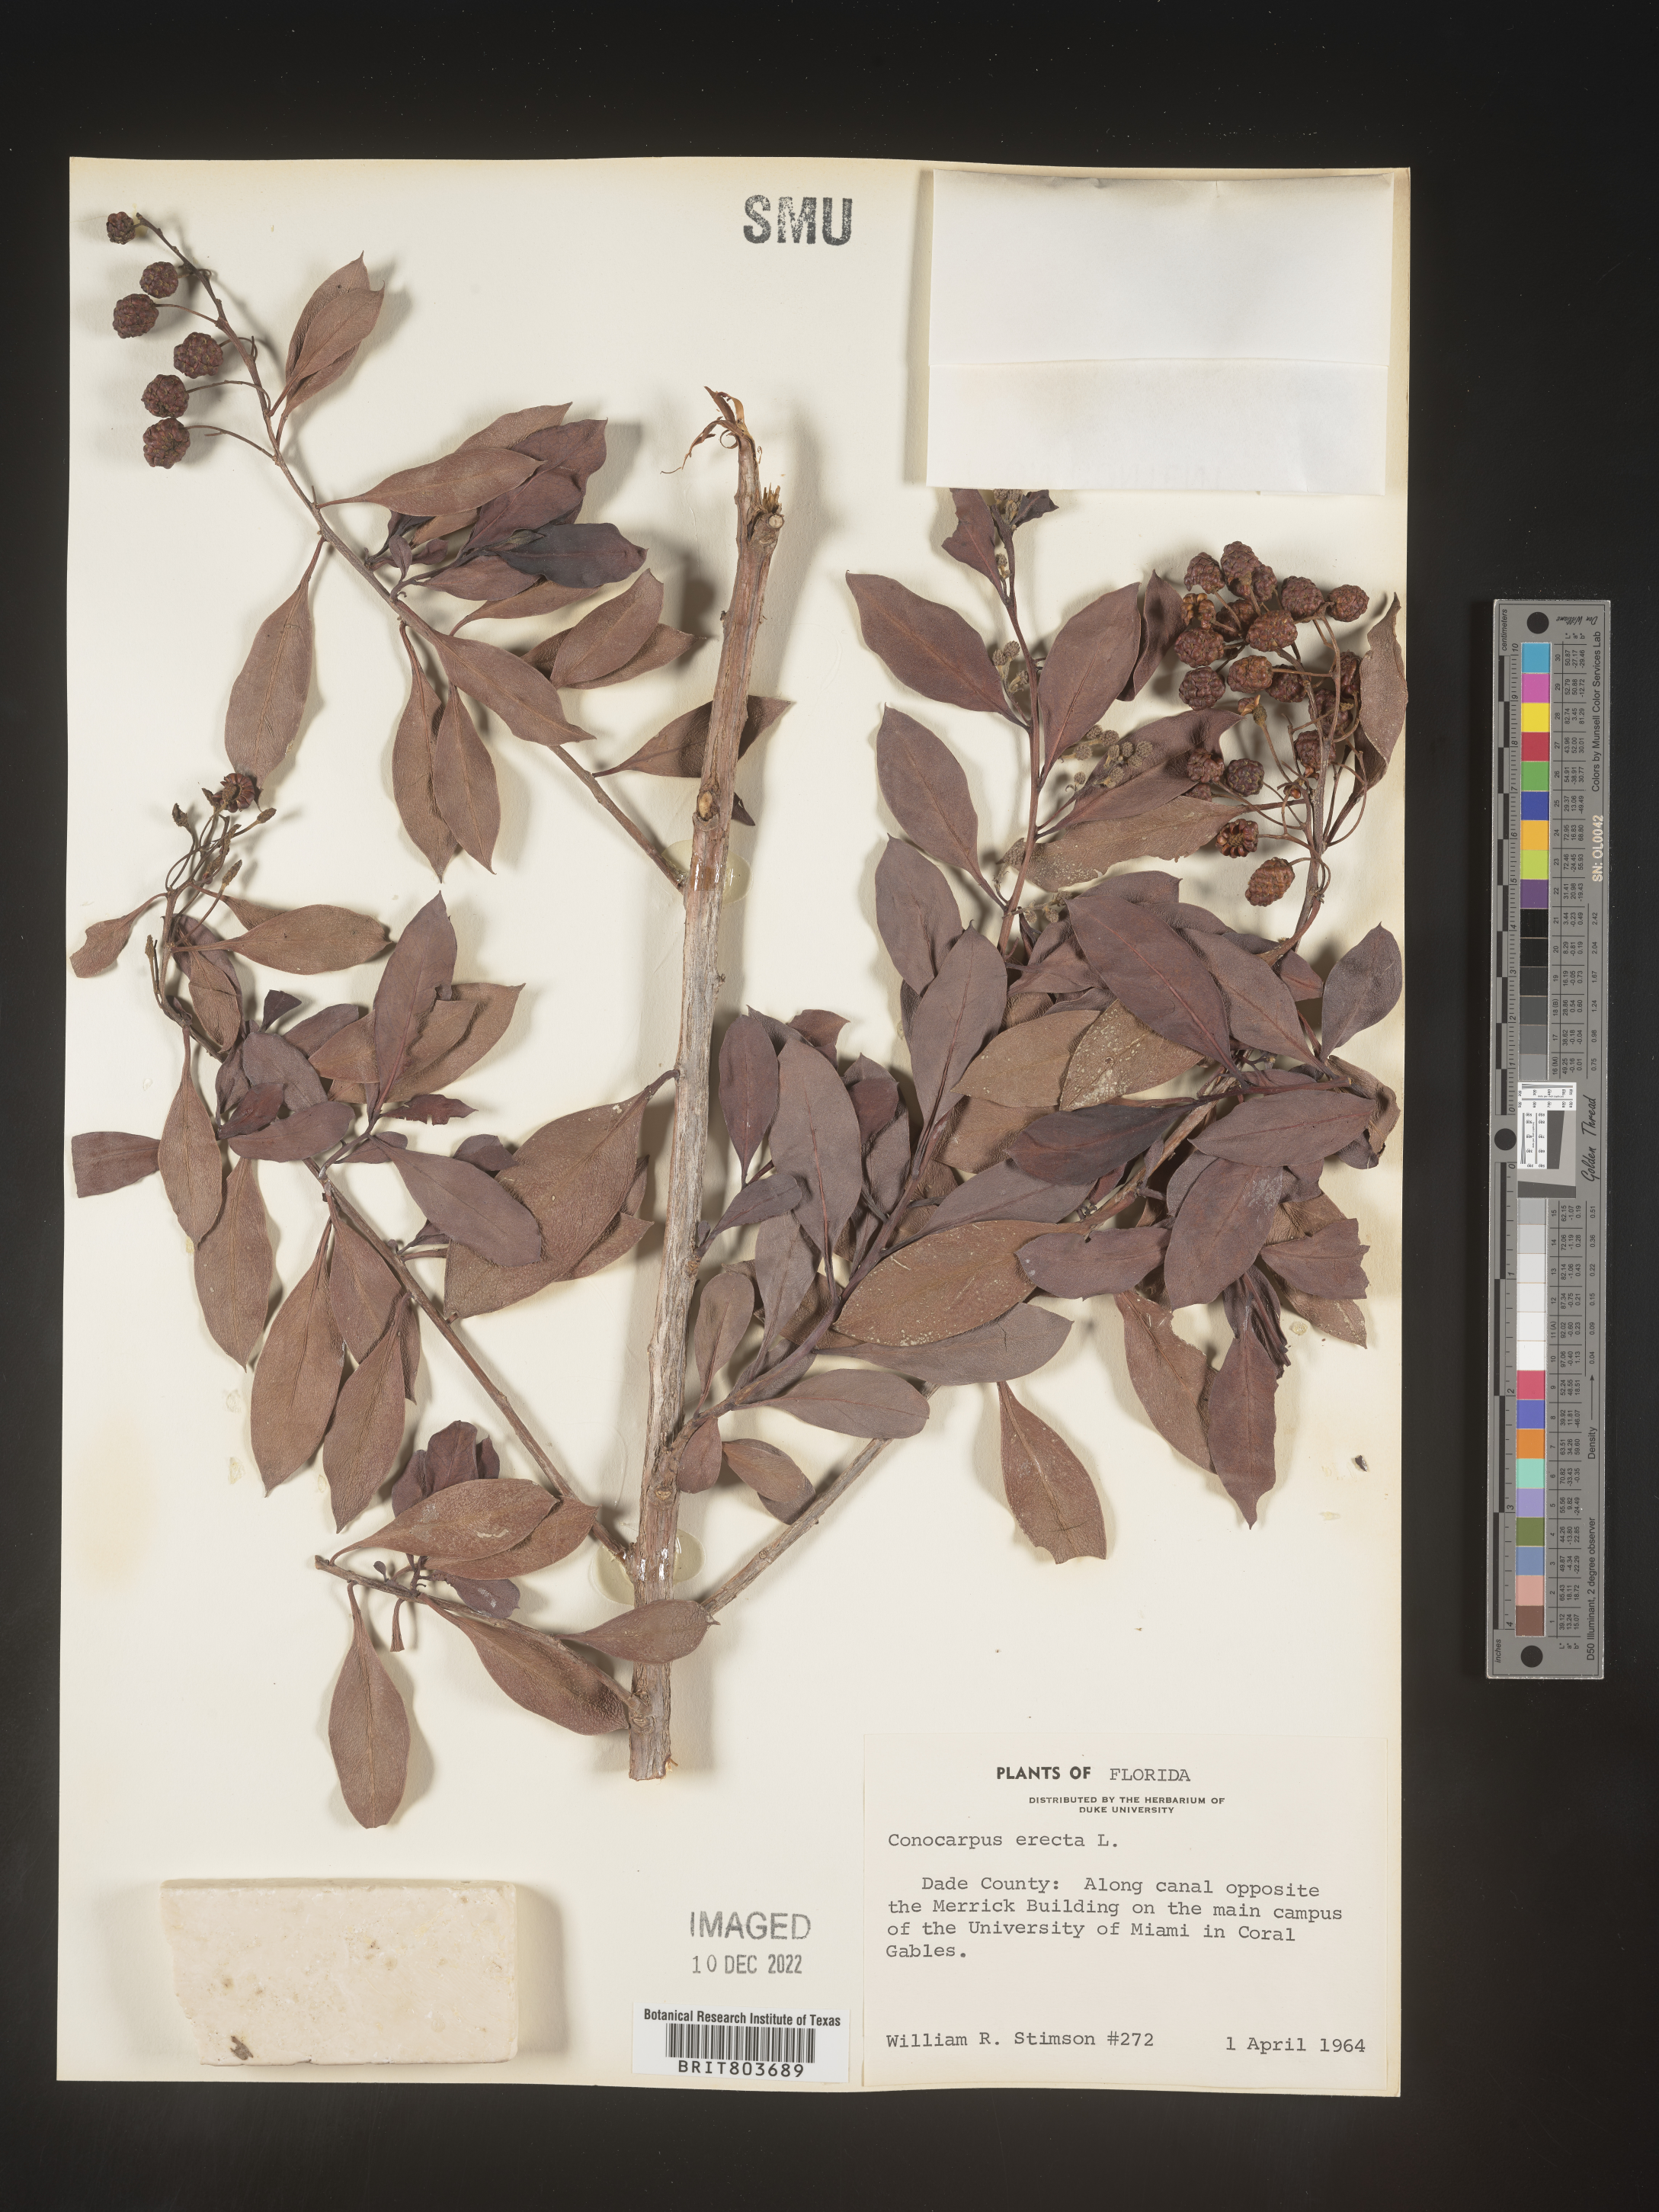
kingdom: Plantae
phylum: Tracheophyta
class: Magnoliopsida
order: Myrtales
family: Combretaceae
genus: Conocarpus
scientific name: Conocarpus erectus
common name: Button mangrove
